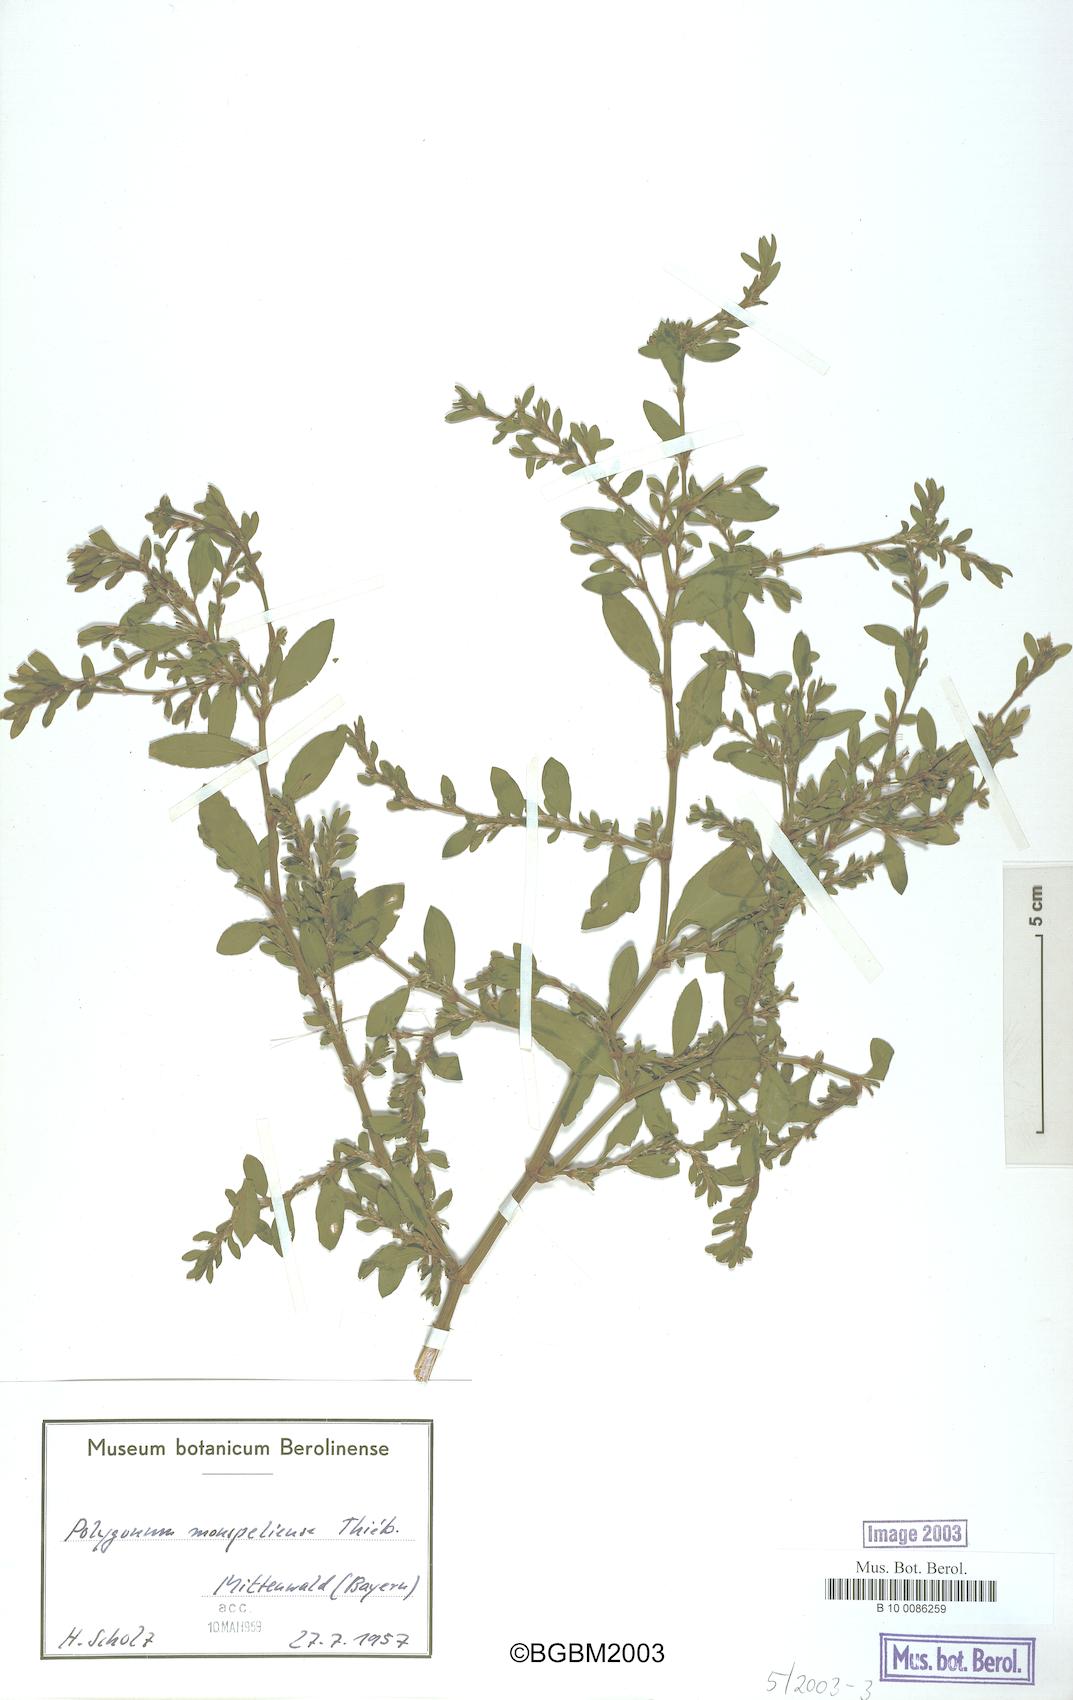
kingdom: Plantae
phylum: Tracheophyta
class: Magnoliopsida
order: Caryophyllales
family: Polygonaceae
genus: Polygonum
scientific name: Polygonum
